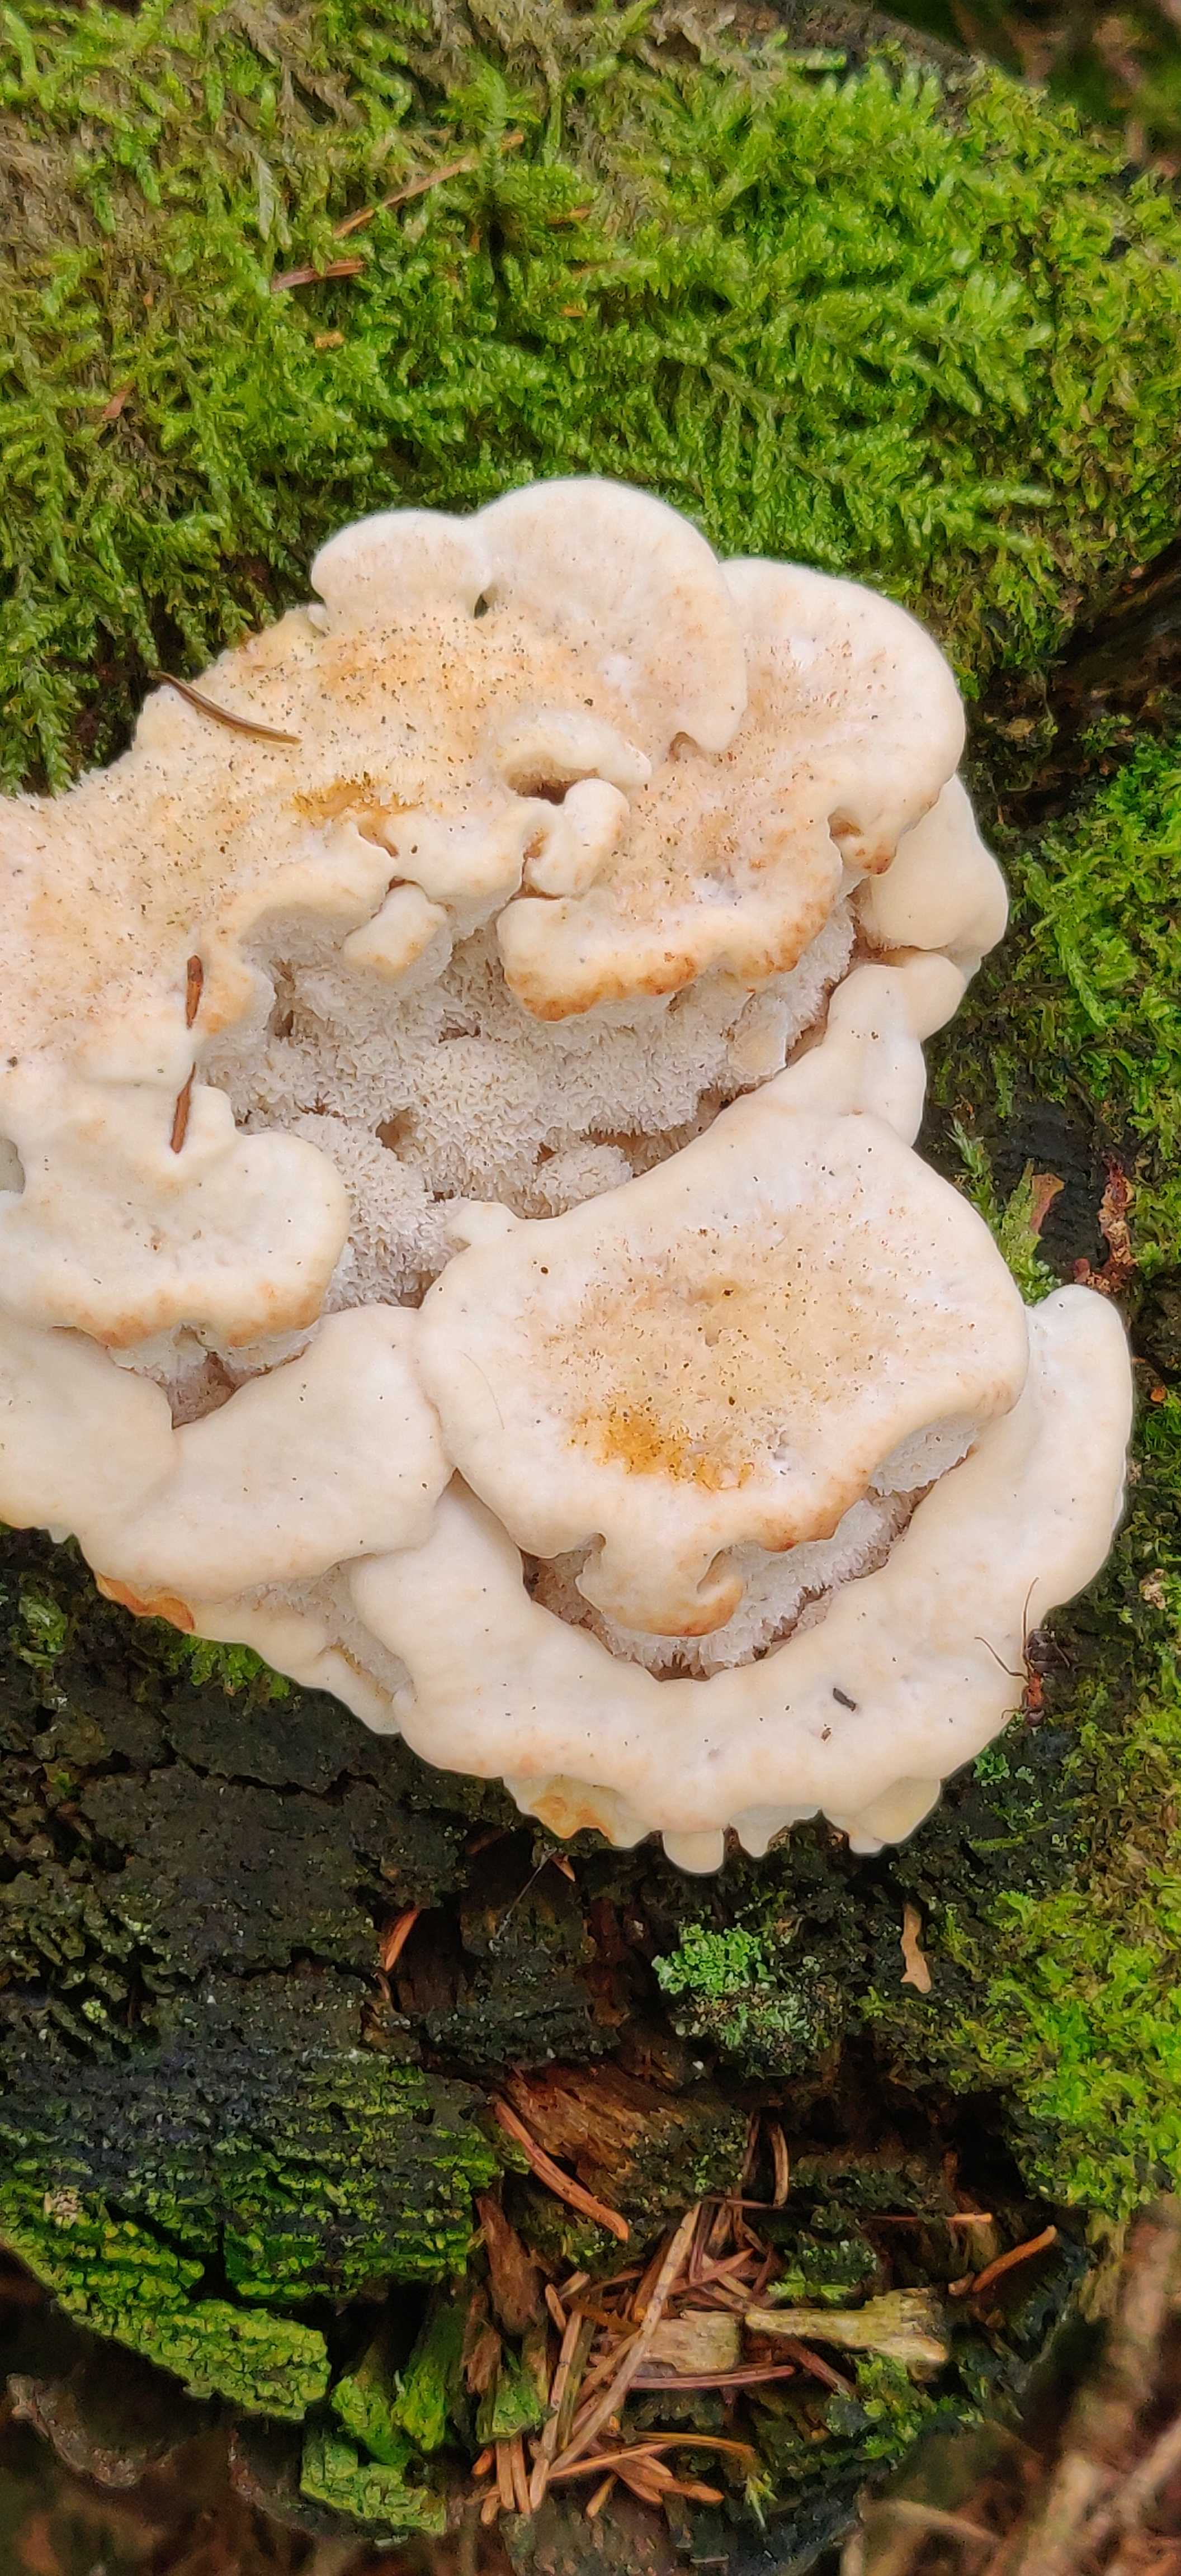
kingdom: Fungi
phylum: Basidiomycota
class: Agaricomycetes
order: Polyporales
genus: Fuscopostia
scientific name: Fuscopostia fragilis
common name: brunende kødporesvamp
